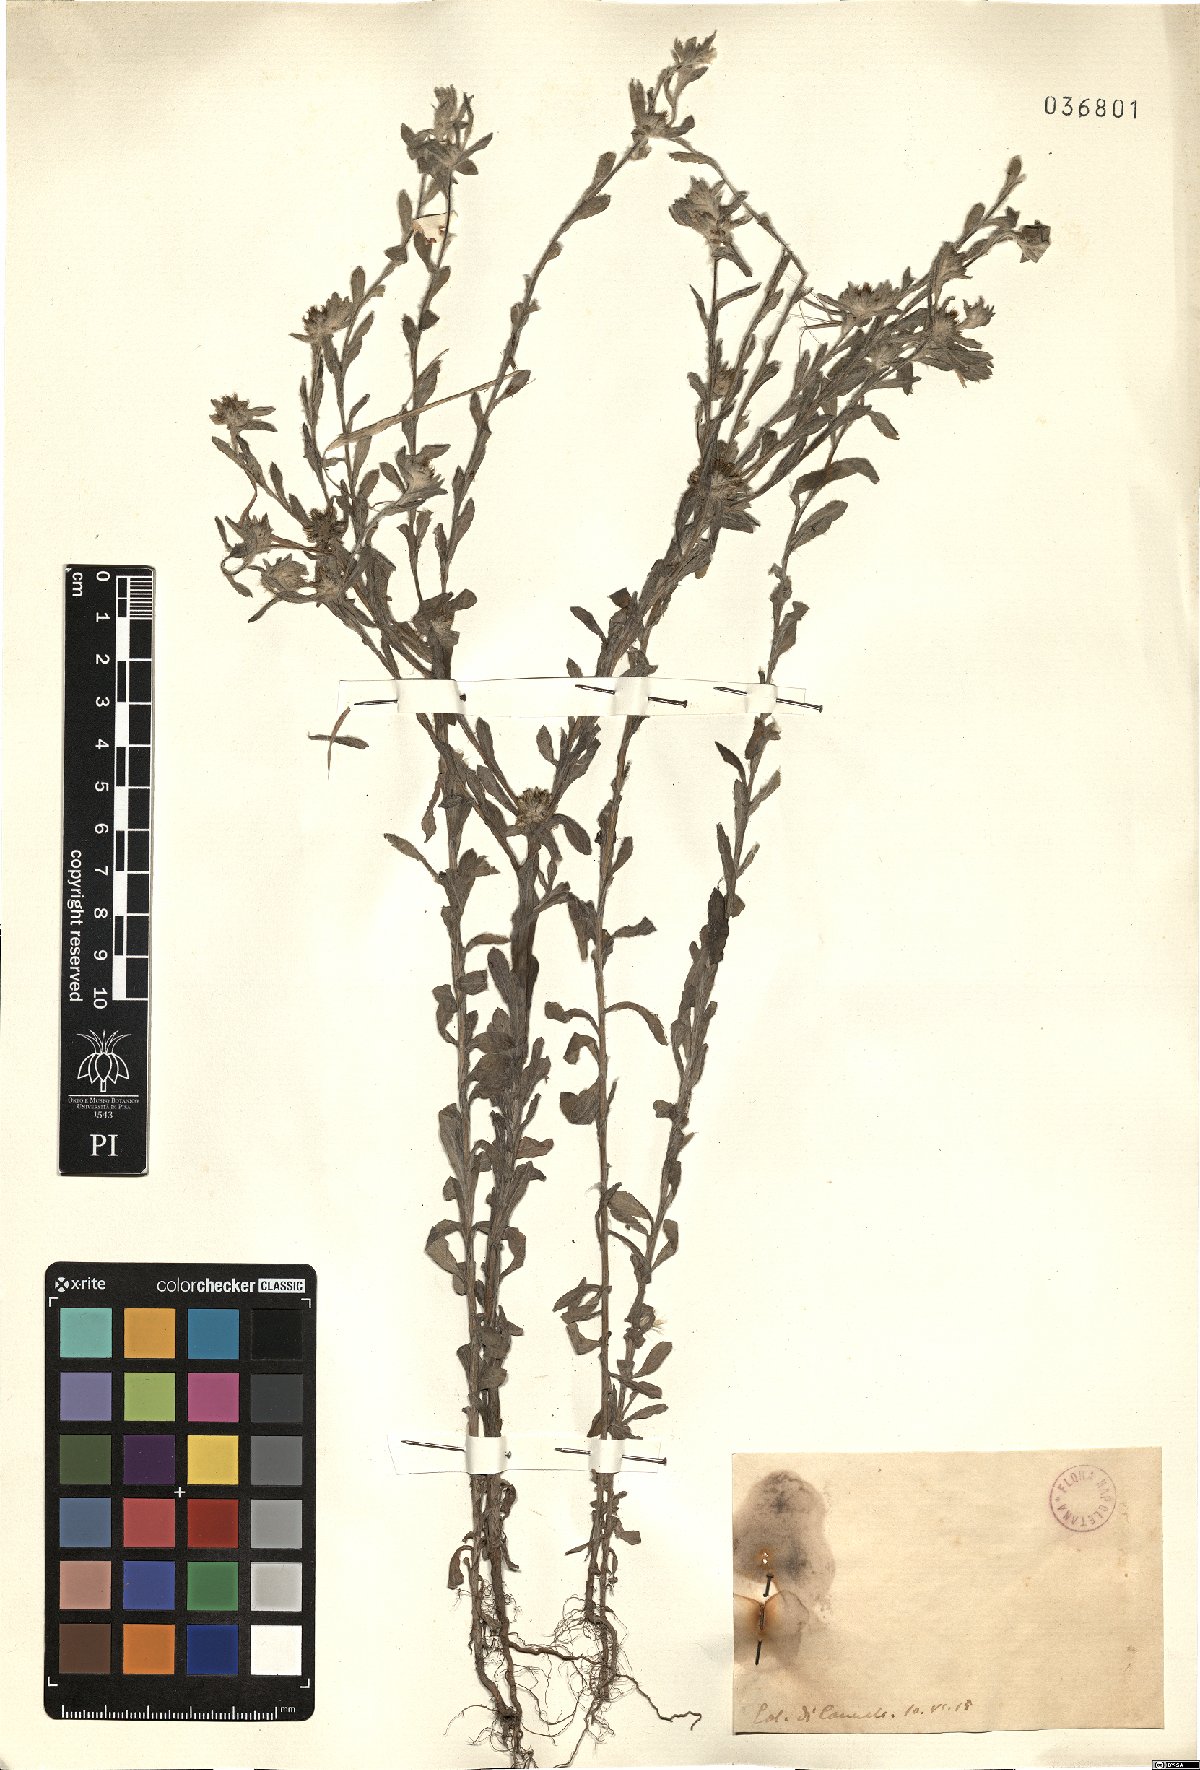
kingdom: Plantae
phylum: Tracheophyta
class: Magnoliopsida
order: Asterales
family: Asteraceae
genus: Filago
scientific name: Filago
